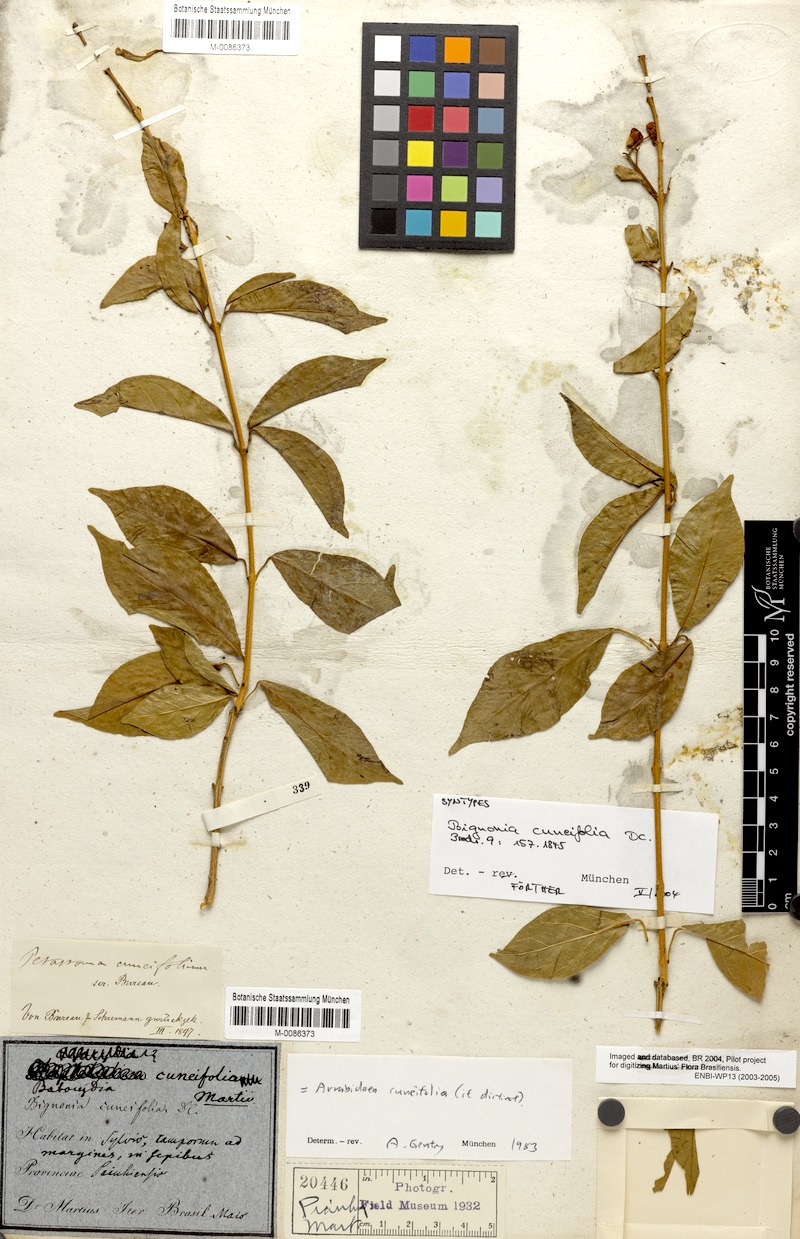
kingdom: Plantae
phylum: Tracheophyta
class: Magnoliopsida
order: Lamiales
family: Bignoniaceae
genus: Fridericia
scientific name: Fridericia cuneifolia
